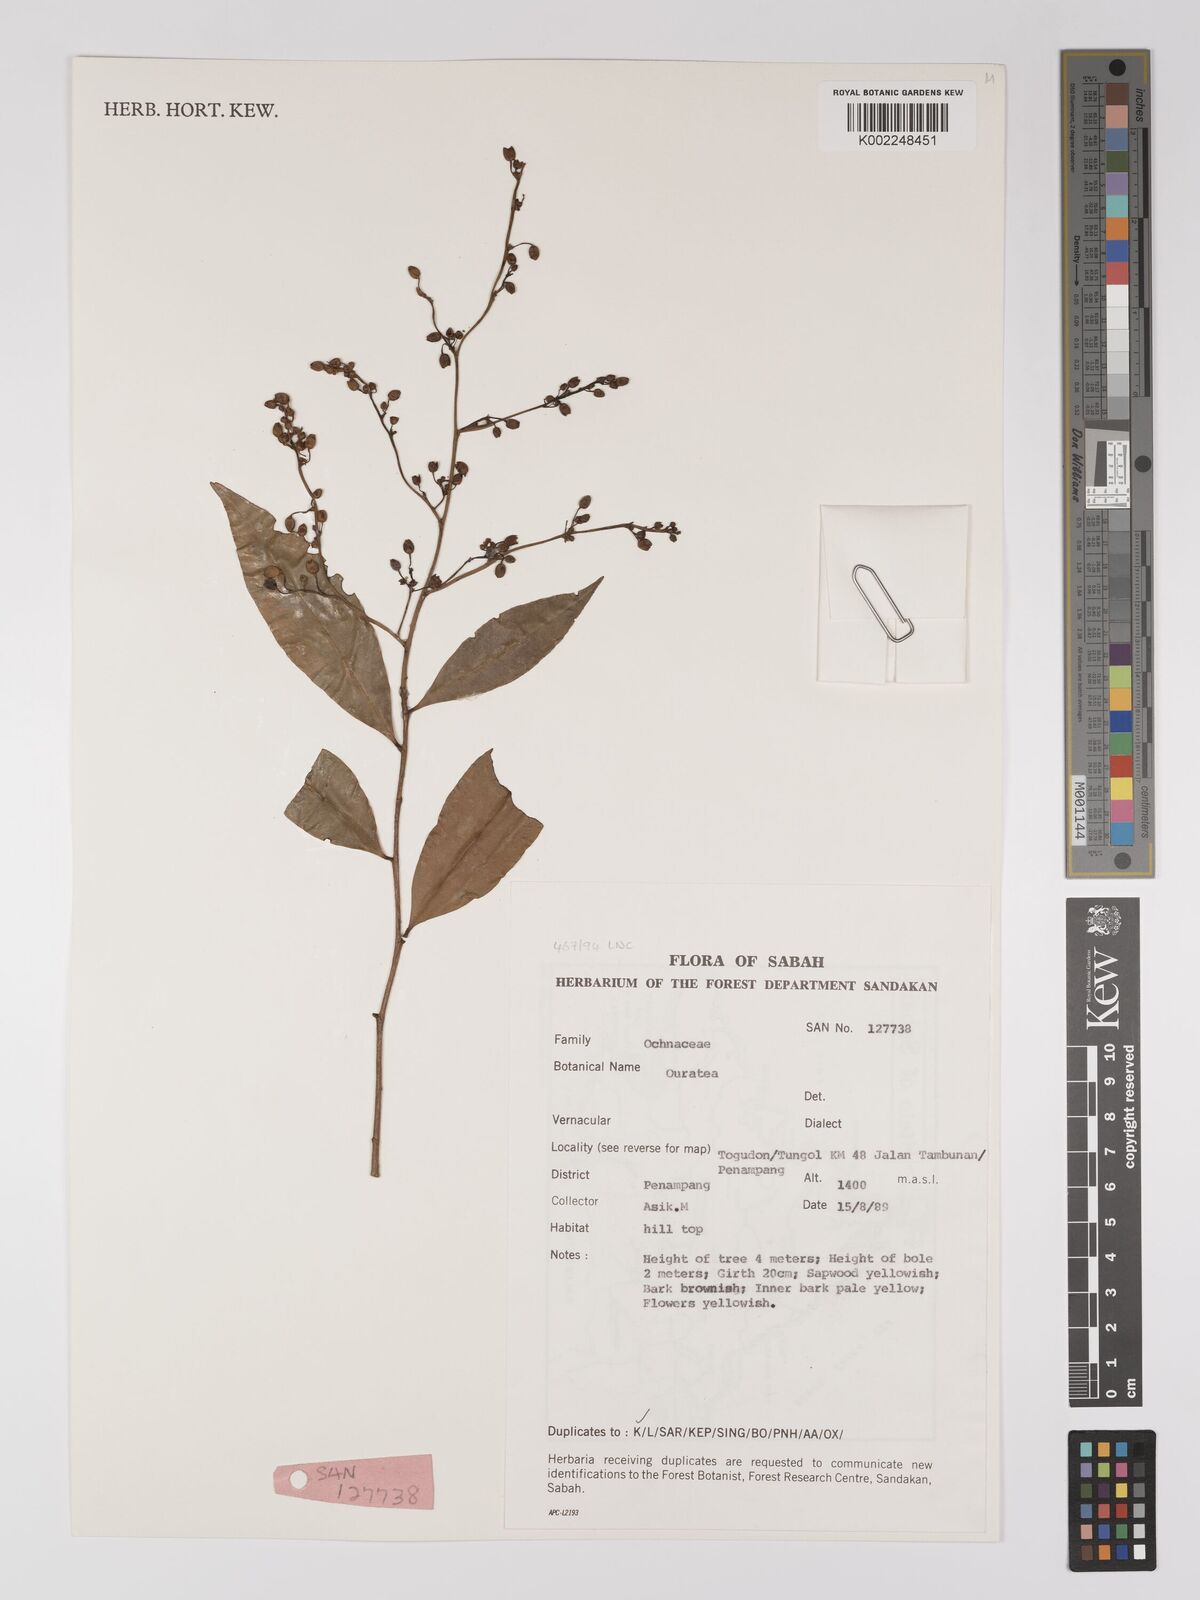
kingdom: Plantae
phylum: Tracheophyta
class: Magnoliopsida
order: Malpighiales
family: Ochnaceae
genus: Gomphia
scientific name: Gomphia serrata
